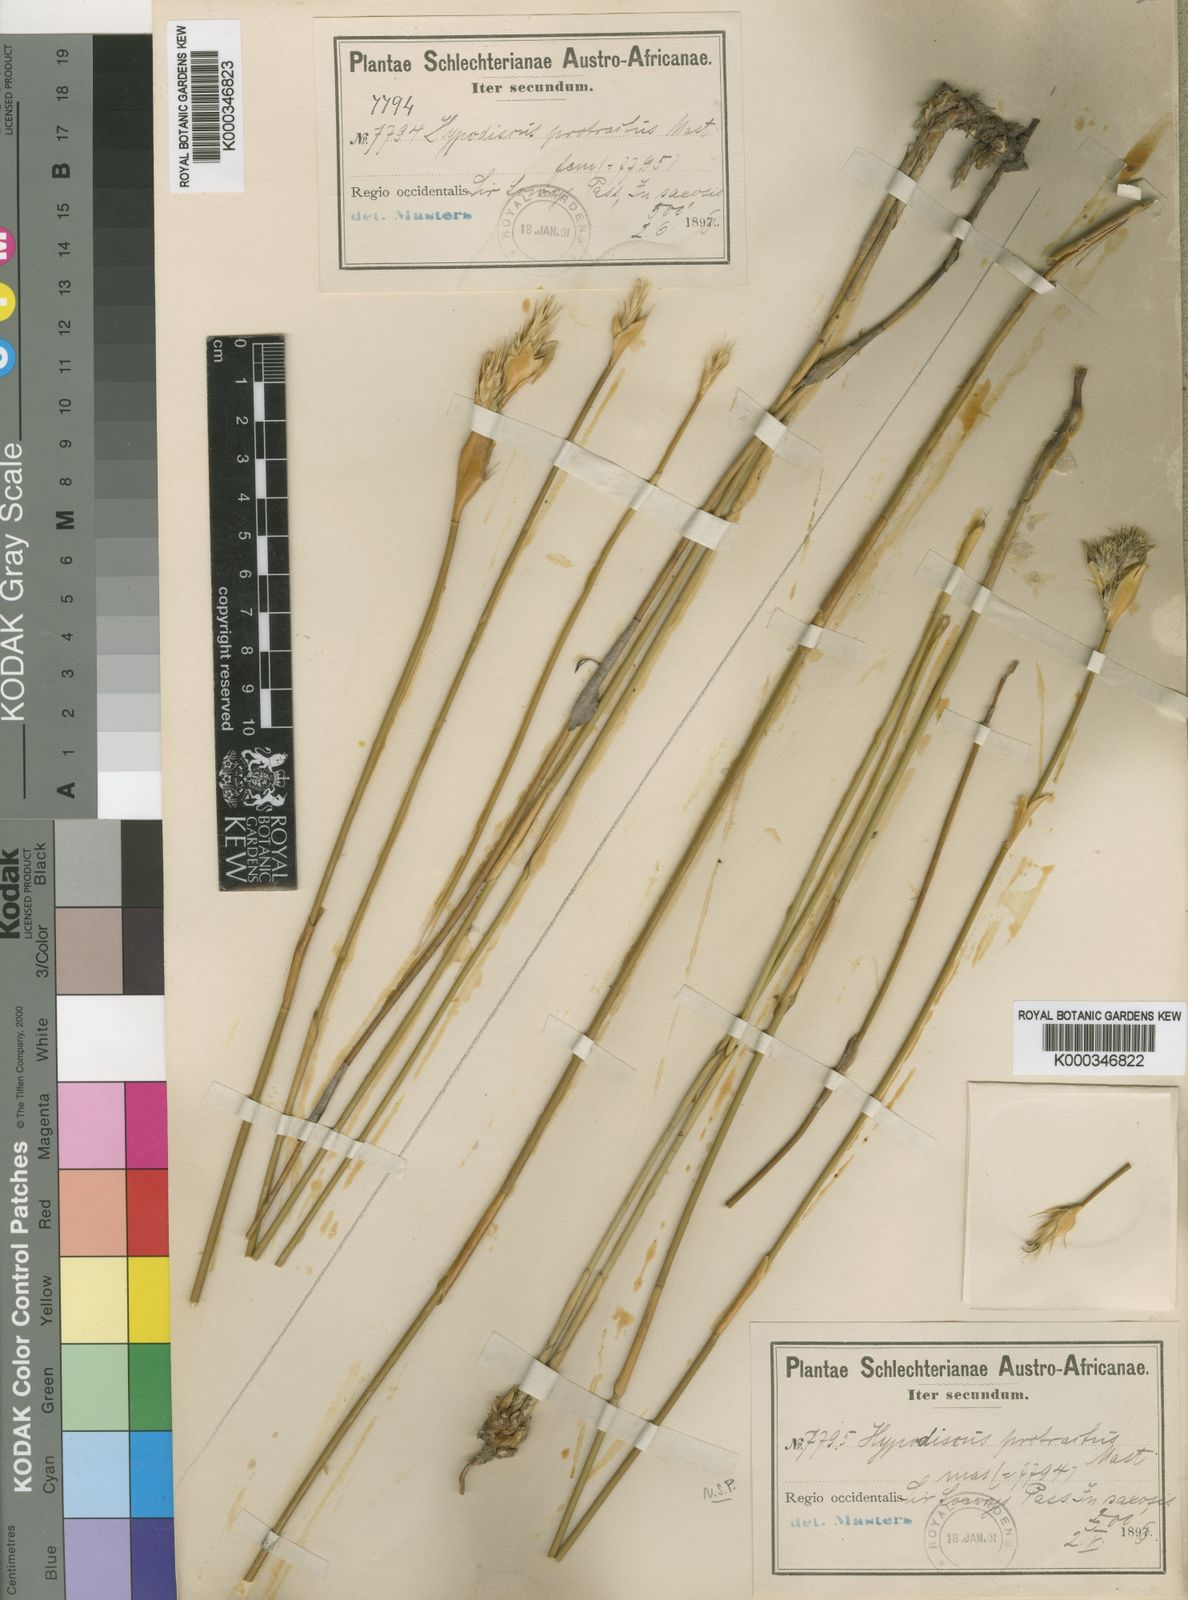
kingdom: Plantae
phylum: Tracheophyta
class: Liliopsida
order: Poales
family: Restionaceae
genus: Hypodiscus
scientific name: Hypodiscus aristatus
